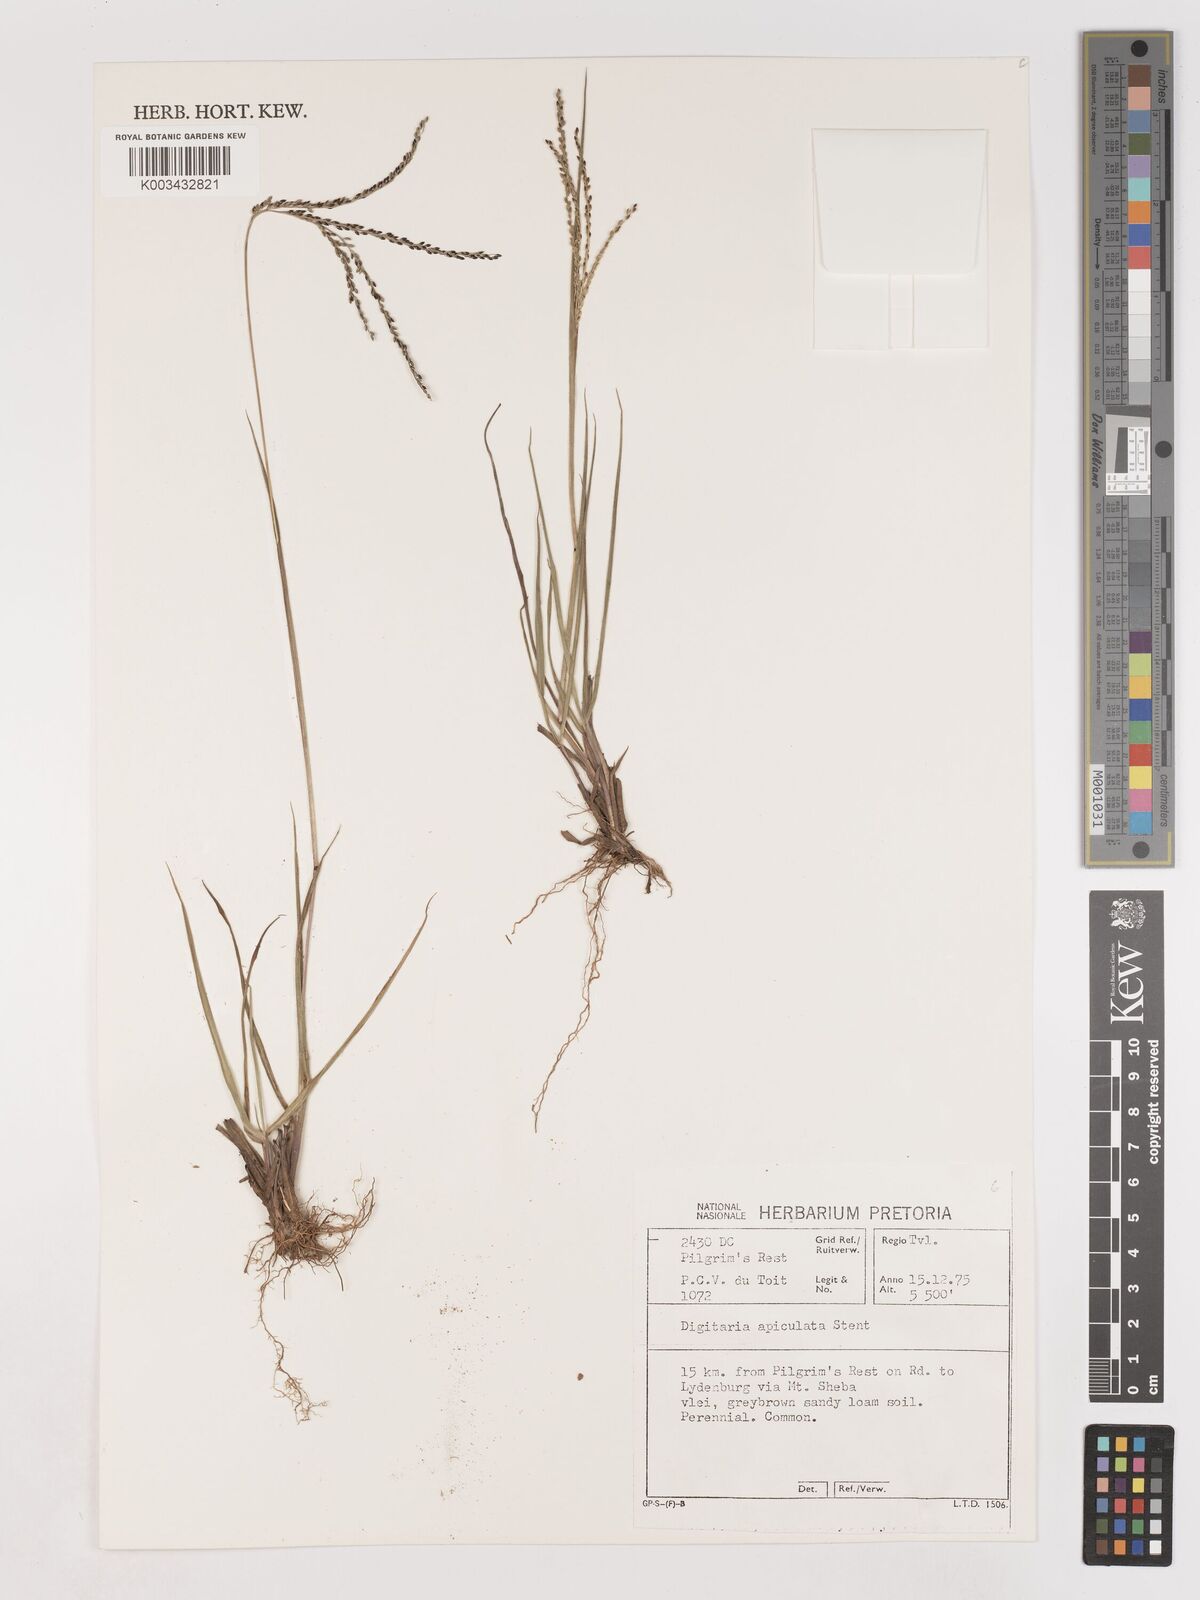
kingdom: Plantae
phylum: Tracheophyta
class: Liliopsida
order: Poales
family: Poaceae
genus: Digitaria
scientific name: Digitaria maitlandii
